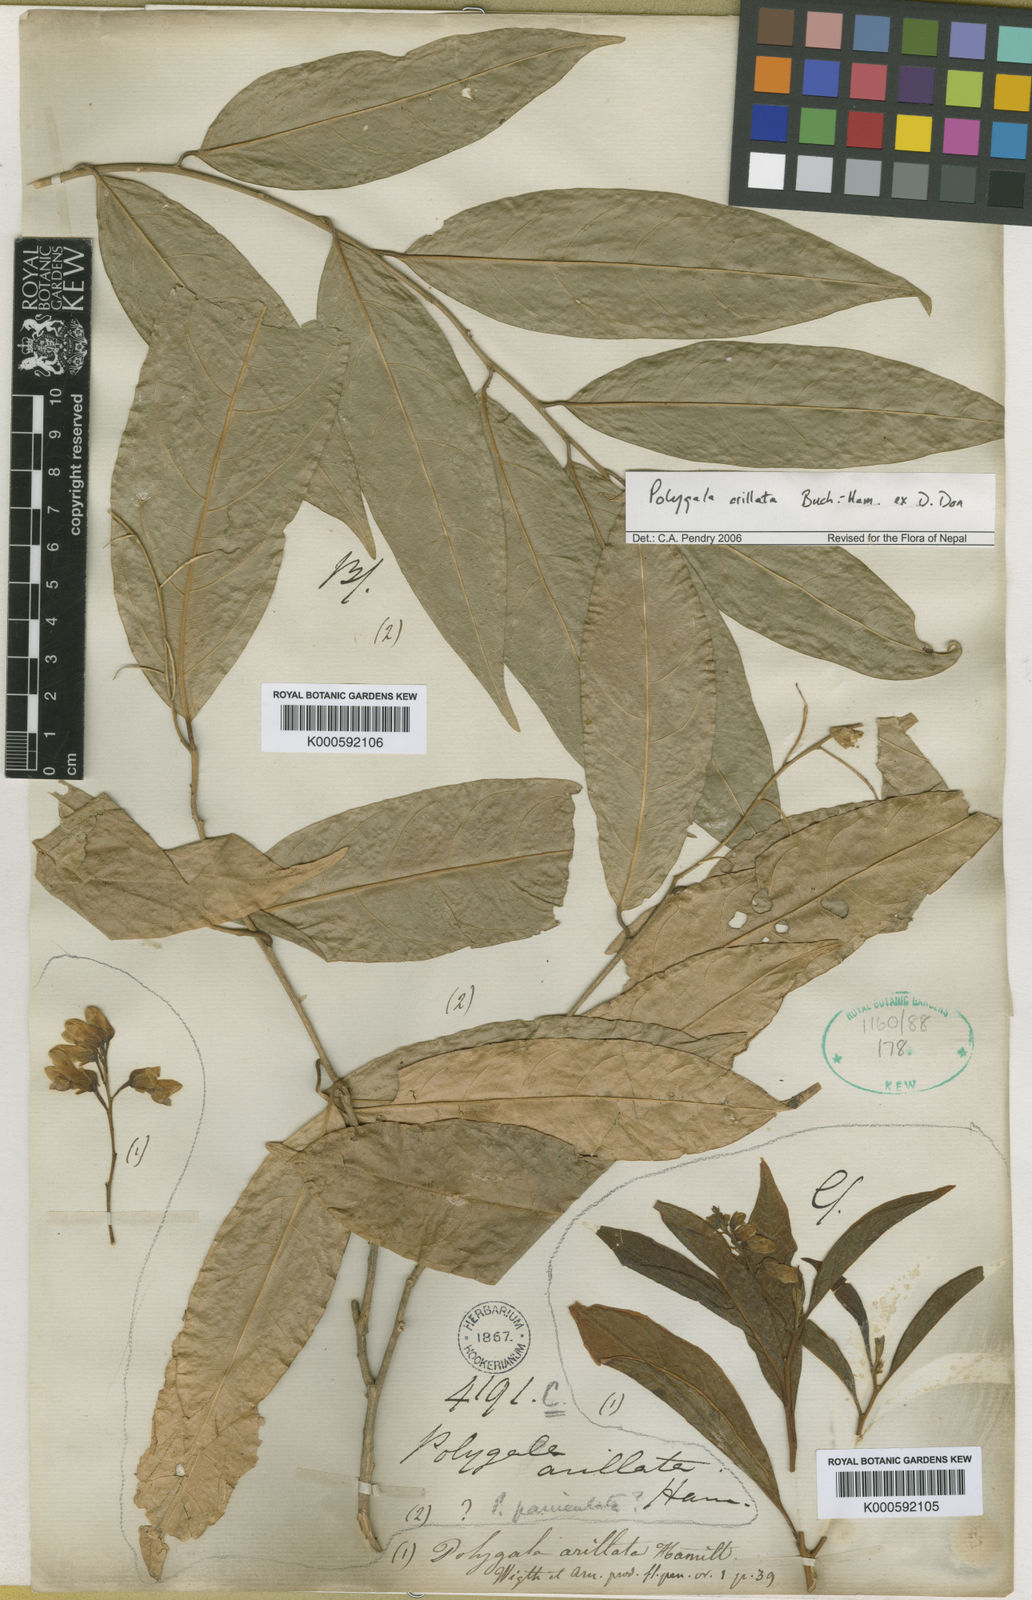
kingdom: Plantae
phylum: Tracheophyta
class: Magnoliopsida
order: Fabales
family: Polygalaceae
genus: Polygala
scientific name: Polygala arillata
